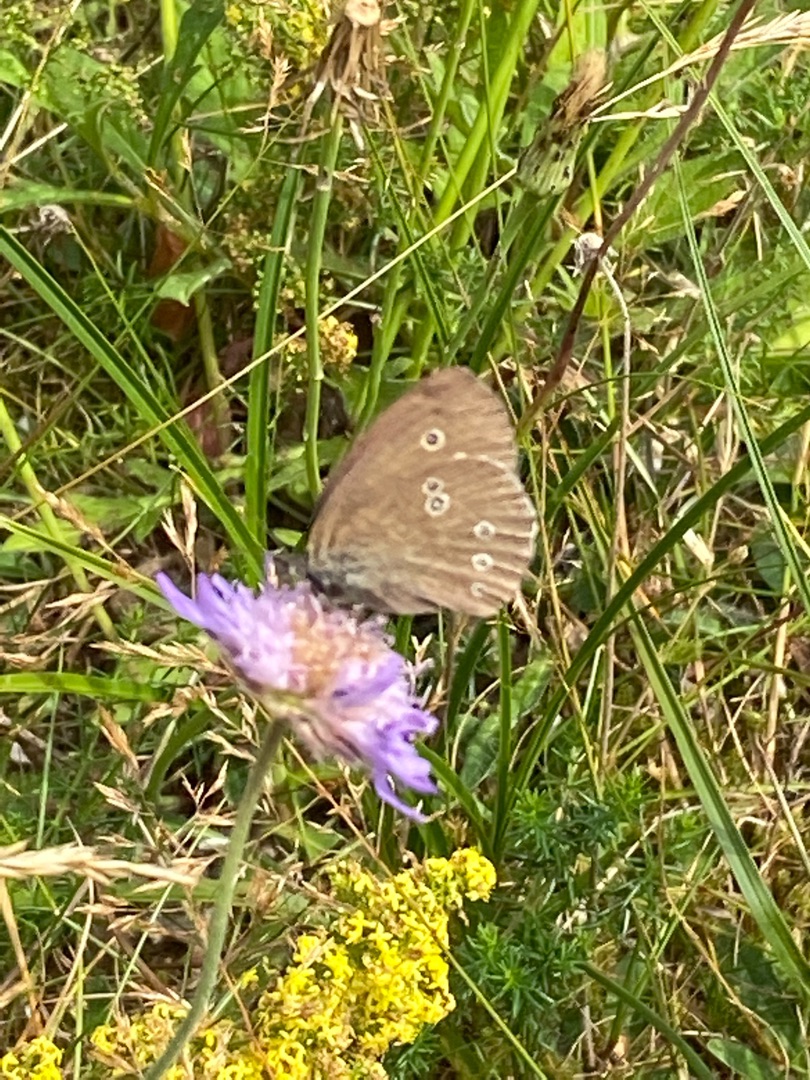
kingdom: Animalia
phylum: Arthropoda
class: Insecta
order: Lepidoptera
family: Nymphalidae
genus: Aphantopus
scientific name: Aphantopus hyperantus
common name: Engrandøje
